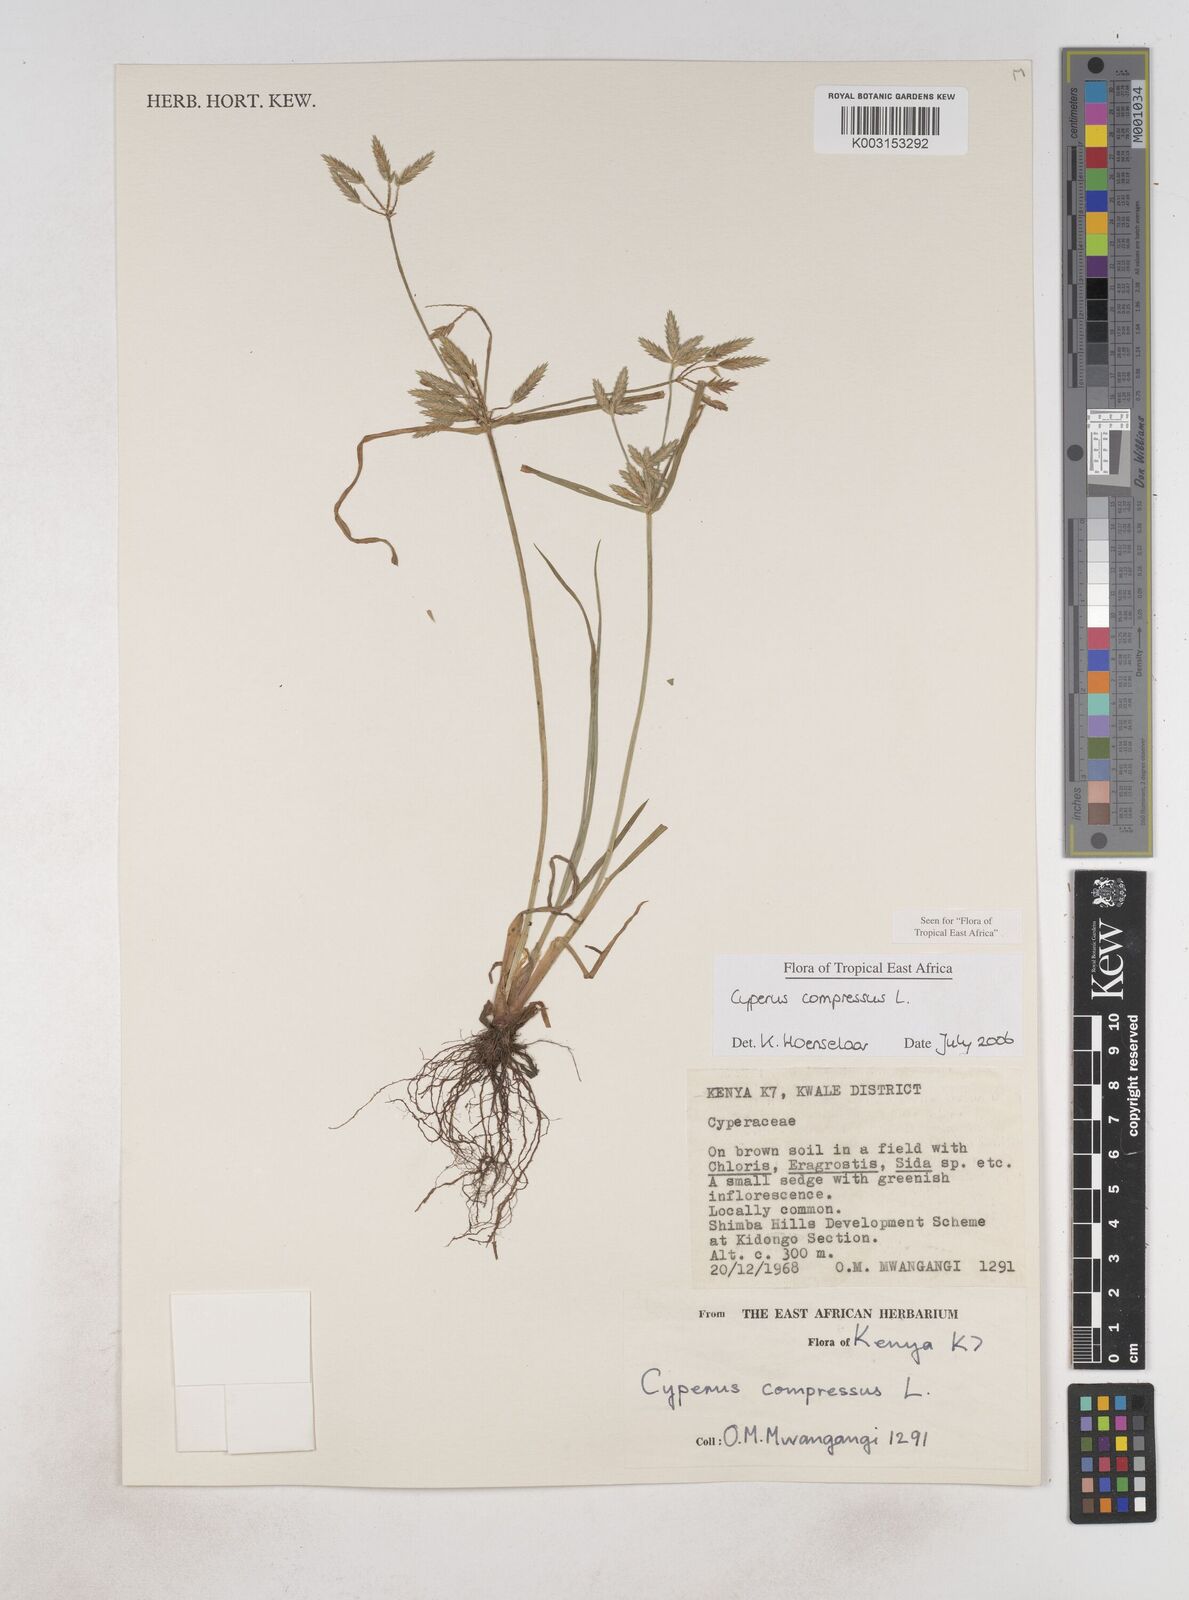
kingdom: Plantae
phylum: Tracheophyta
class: Liliopsida
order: Poales
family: Cyperaceae
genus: Cyperus
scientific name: Cyperus compressus
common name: Poorland flatsedge
